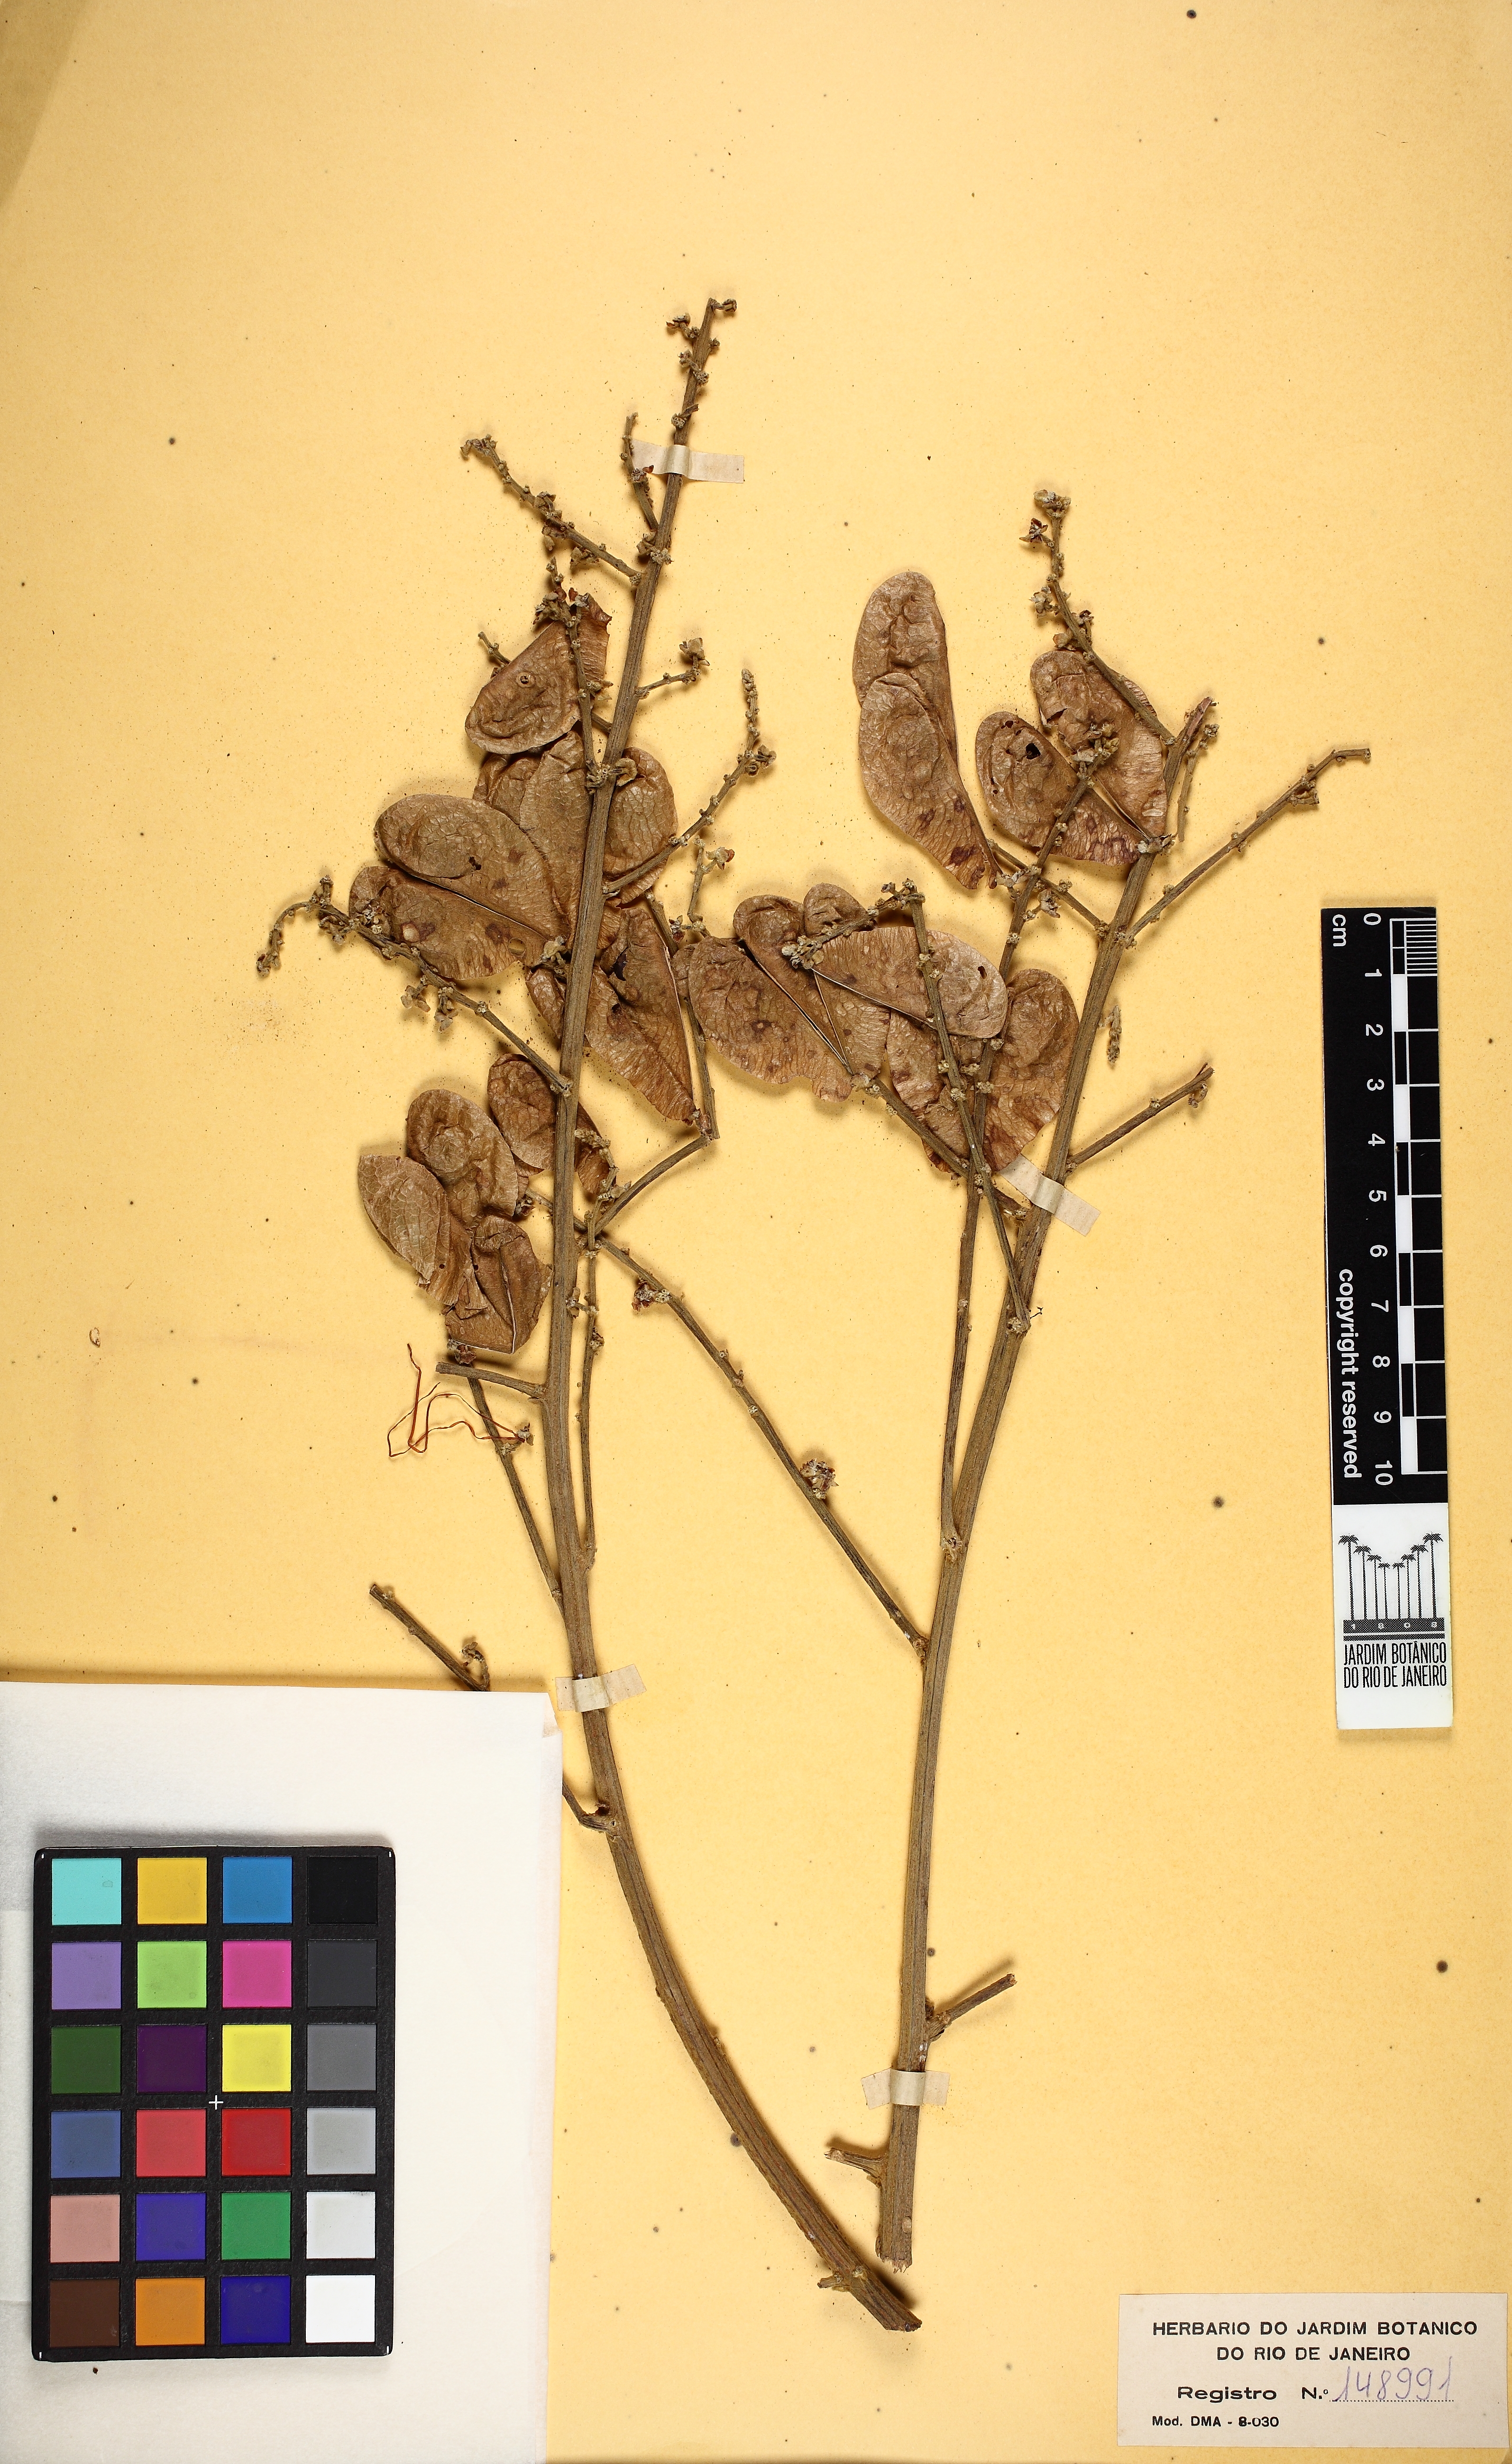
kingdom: Plantae
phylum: Tracheophyta
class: Magnoliopsida
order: Sapindales
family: Sapindaceae
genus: Toulicia
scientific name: Toulicia patentinervis
